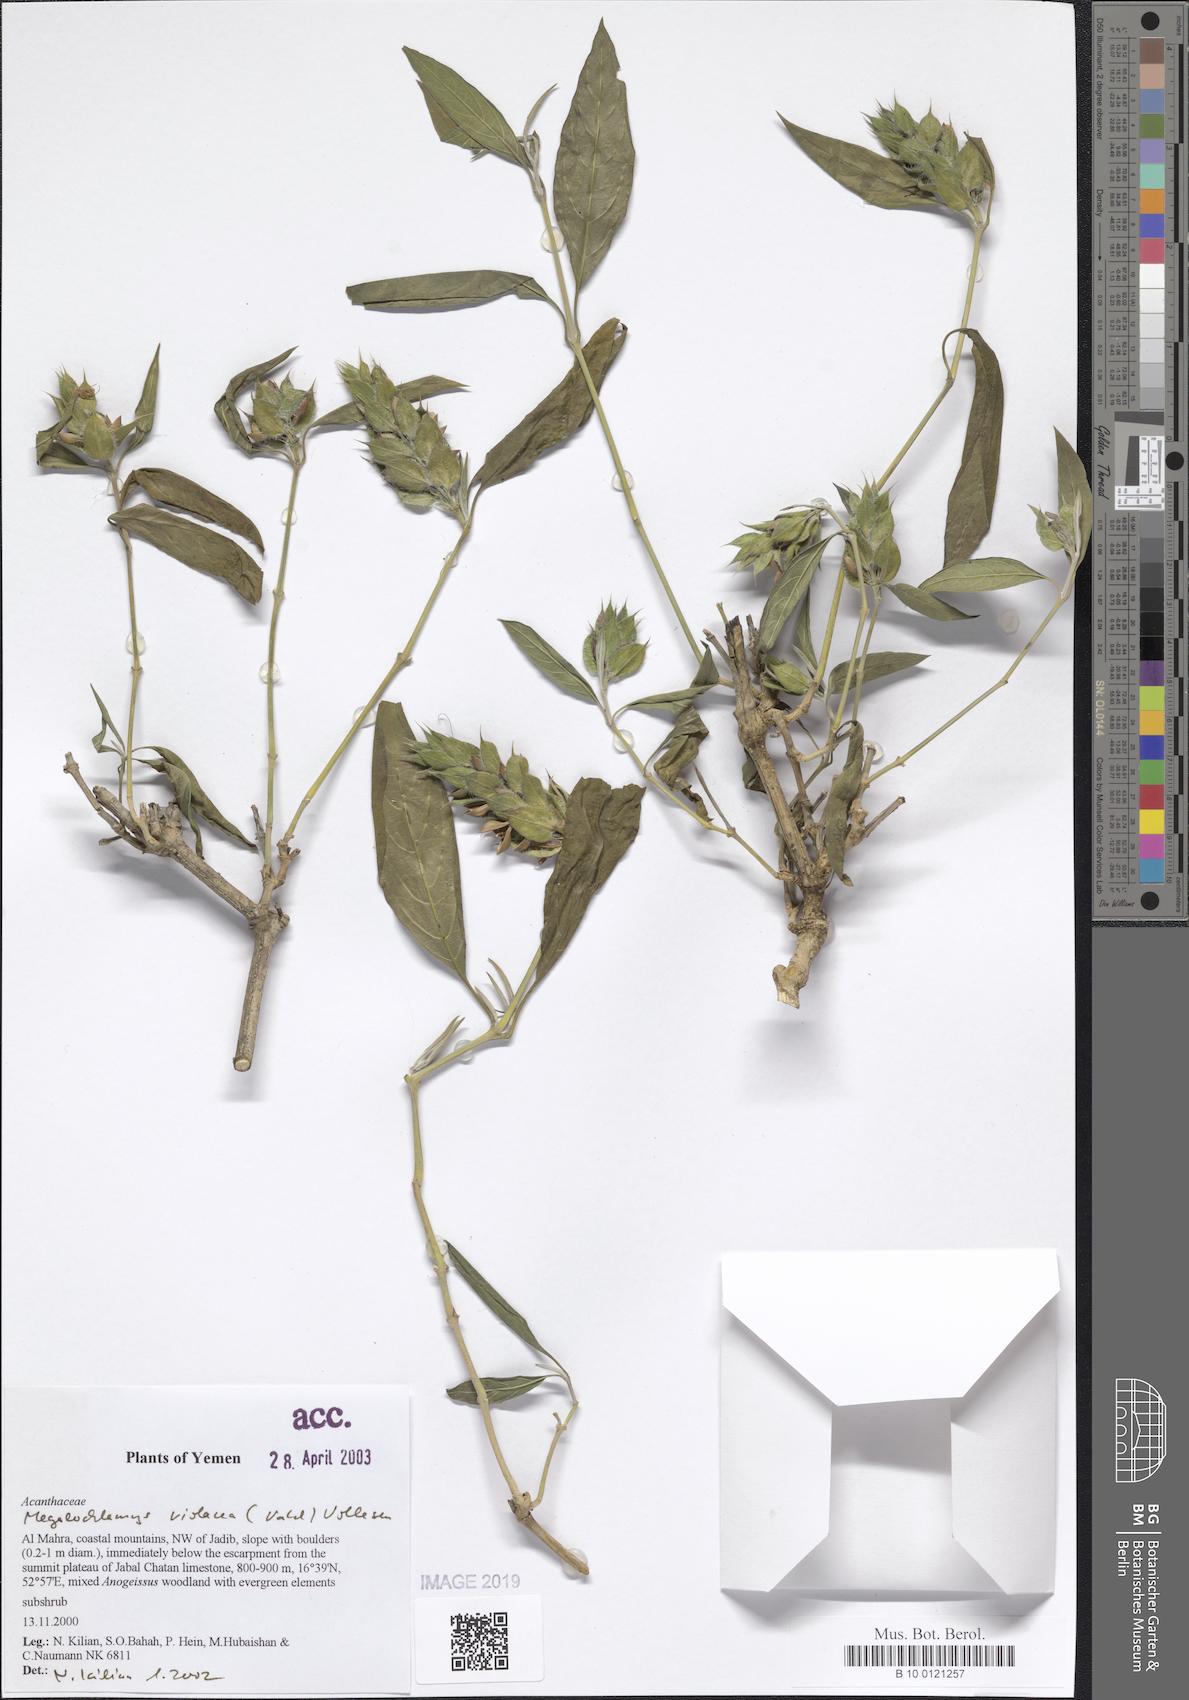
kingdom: Plantae
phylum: Tracheophyta
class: Magnoliopsida
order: Lamiales
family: Acanthaceae
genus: Megalochlamys
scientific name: Megalochlamys violacea
